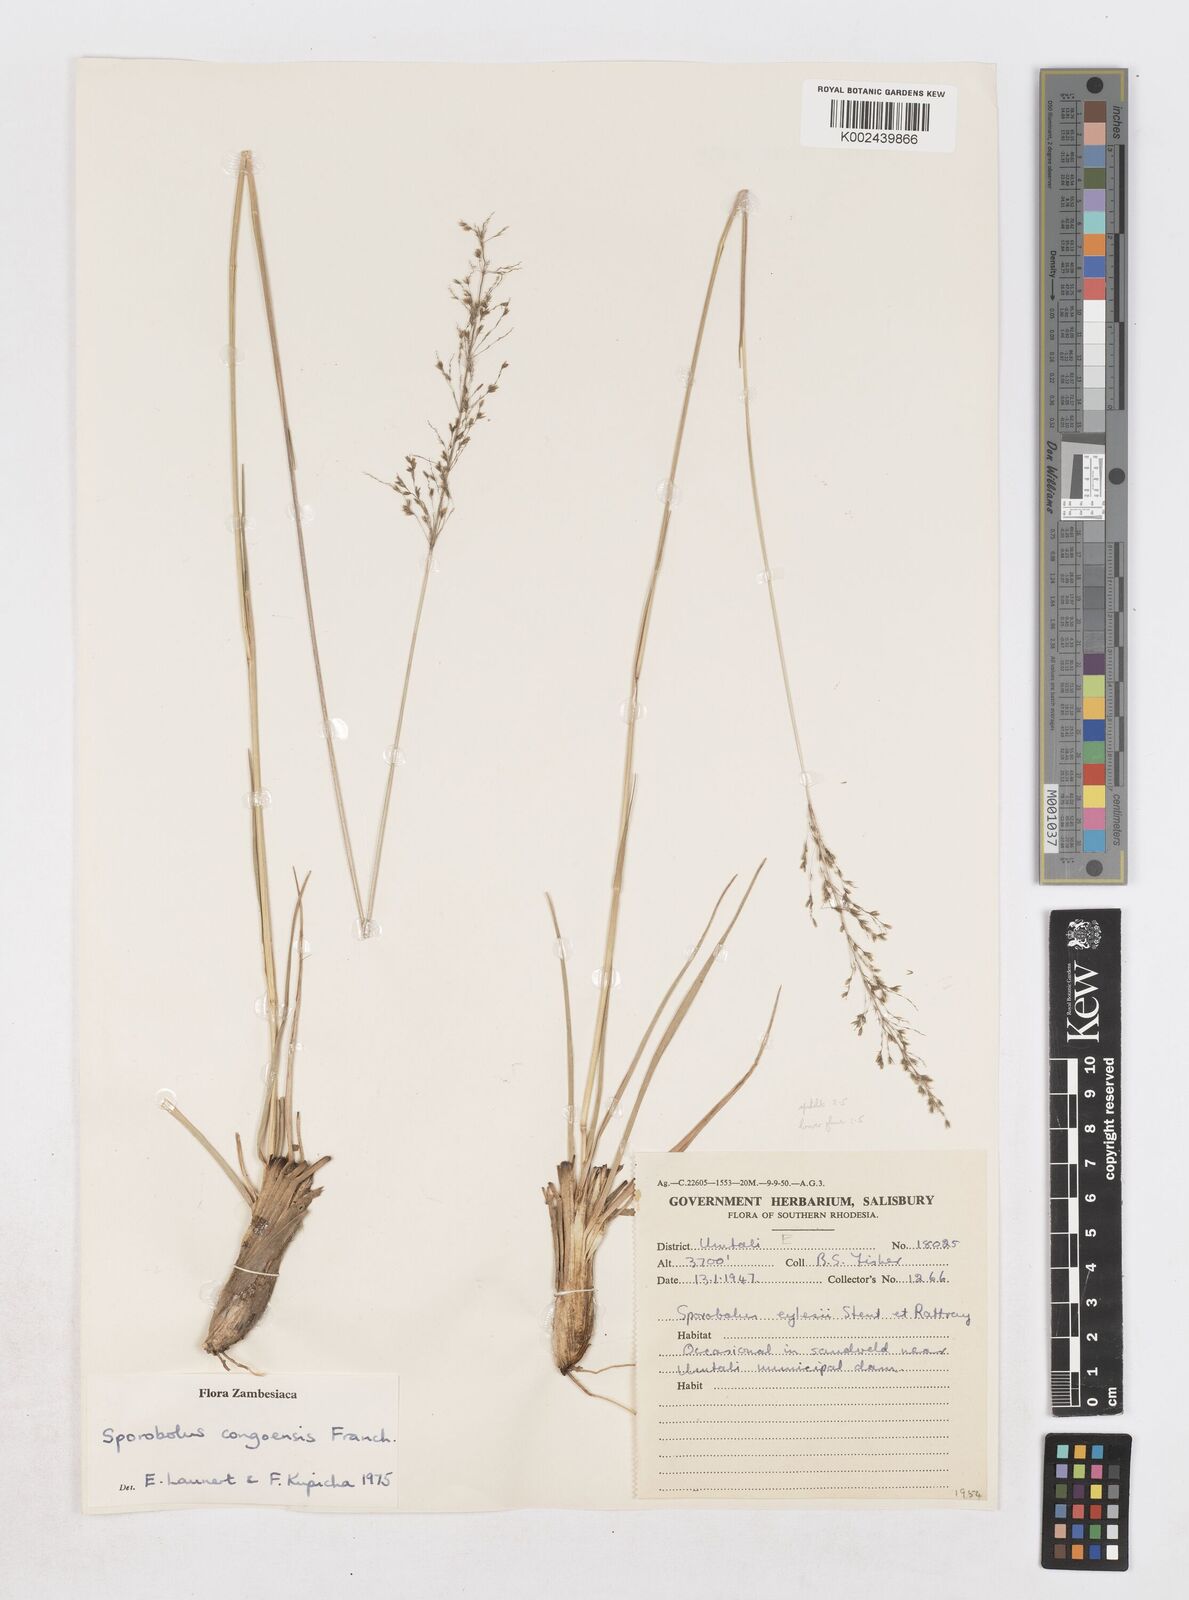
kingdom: Plantae
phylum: Tracheophyta
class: Liliopsida
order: Poales
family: Poaceae
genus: Sporobolus
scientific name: Sporobolus congoensis
